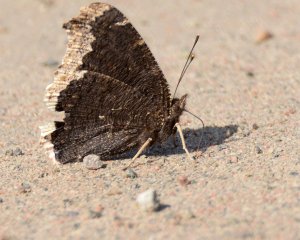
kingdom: Animalia
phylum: Arthropoda
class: Insecta
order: Lepidoptera
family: Nymphalidae
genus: Nymphalis
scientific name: Nymphalis antiopa
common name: Mourning Cloak
